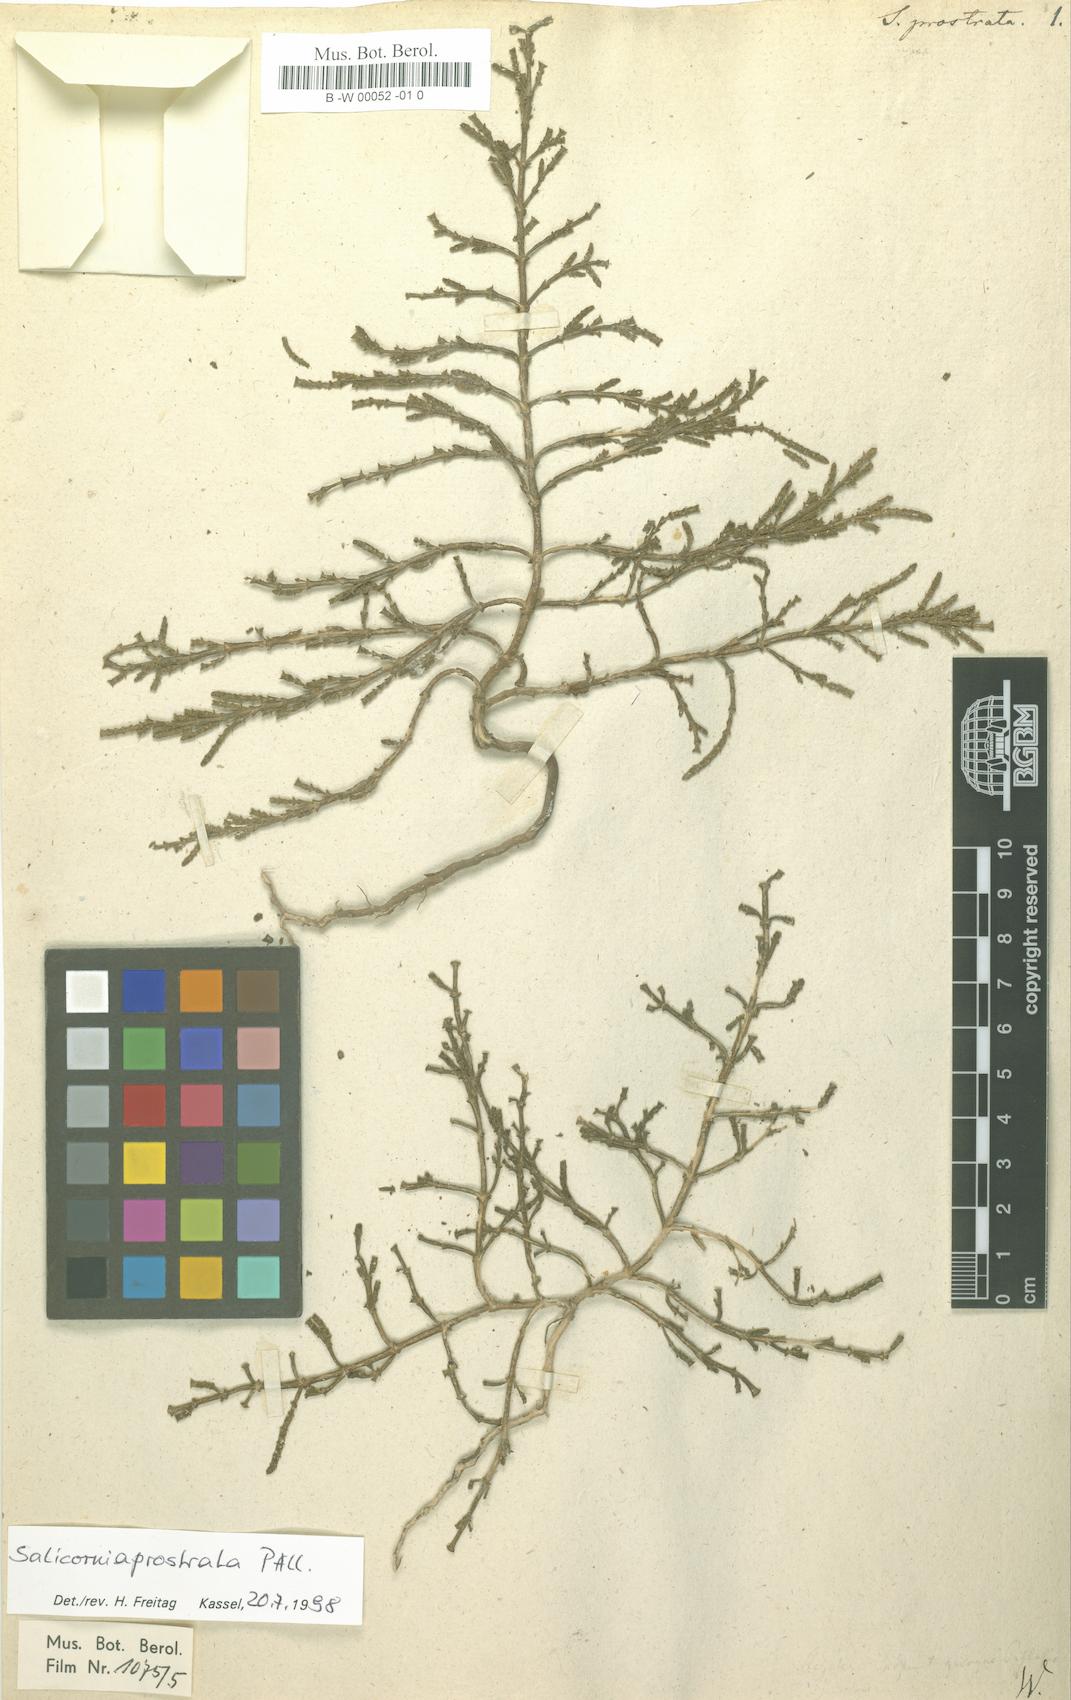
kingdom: Plantae
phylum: Tracheophyta
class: Magnoliopsida
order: Caryophyllales
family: Amaranthaceae
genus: Salicornia
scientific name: Salicornia perennans
